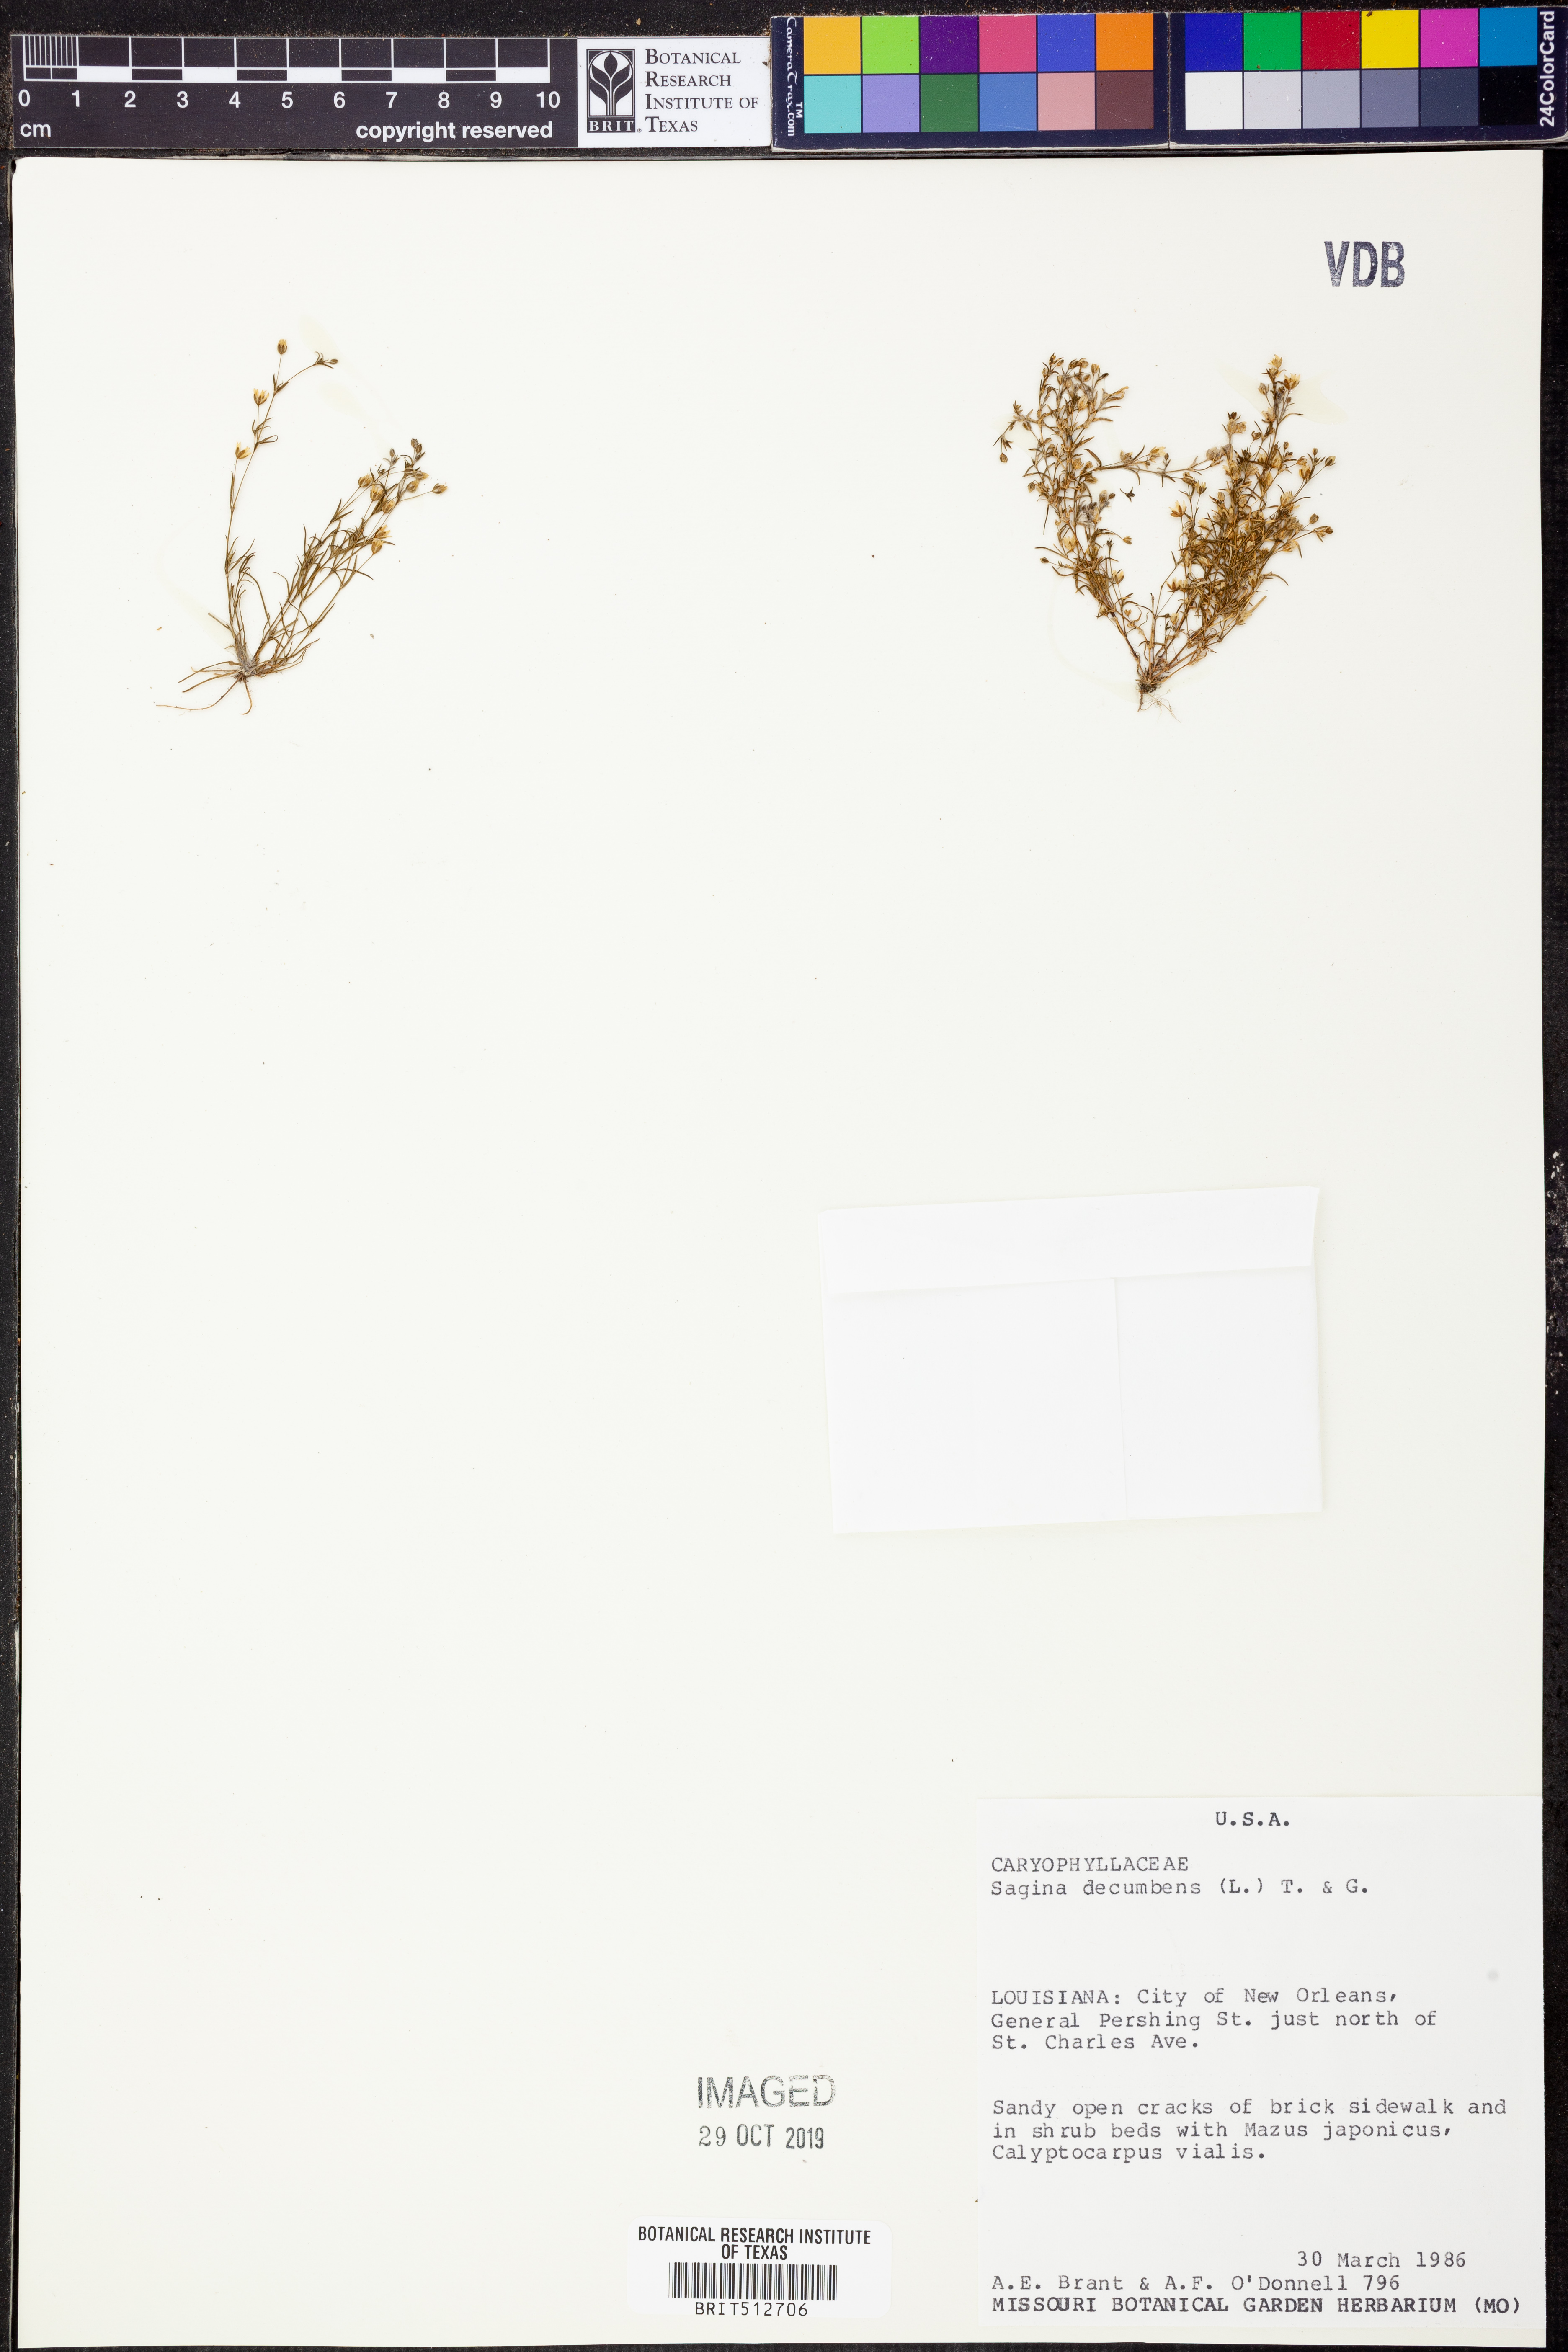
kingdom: Plantae
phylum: Tracheophyta
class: Magnoliopsida
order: Caryophyllales
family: Caryophyllaceae
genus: Sagina
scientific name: Sagina decumbens
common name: Decumbent pearlwort
